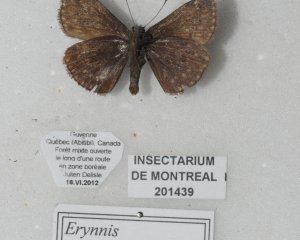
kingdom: Animalia
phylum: Arthropoda
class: Insecta
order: Lepidoptera
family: Hesperiidae
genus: Erynnis
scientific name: Erynnis icelus
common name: Dreamy Duskywing
